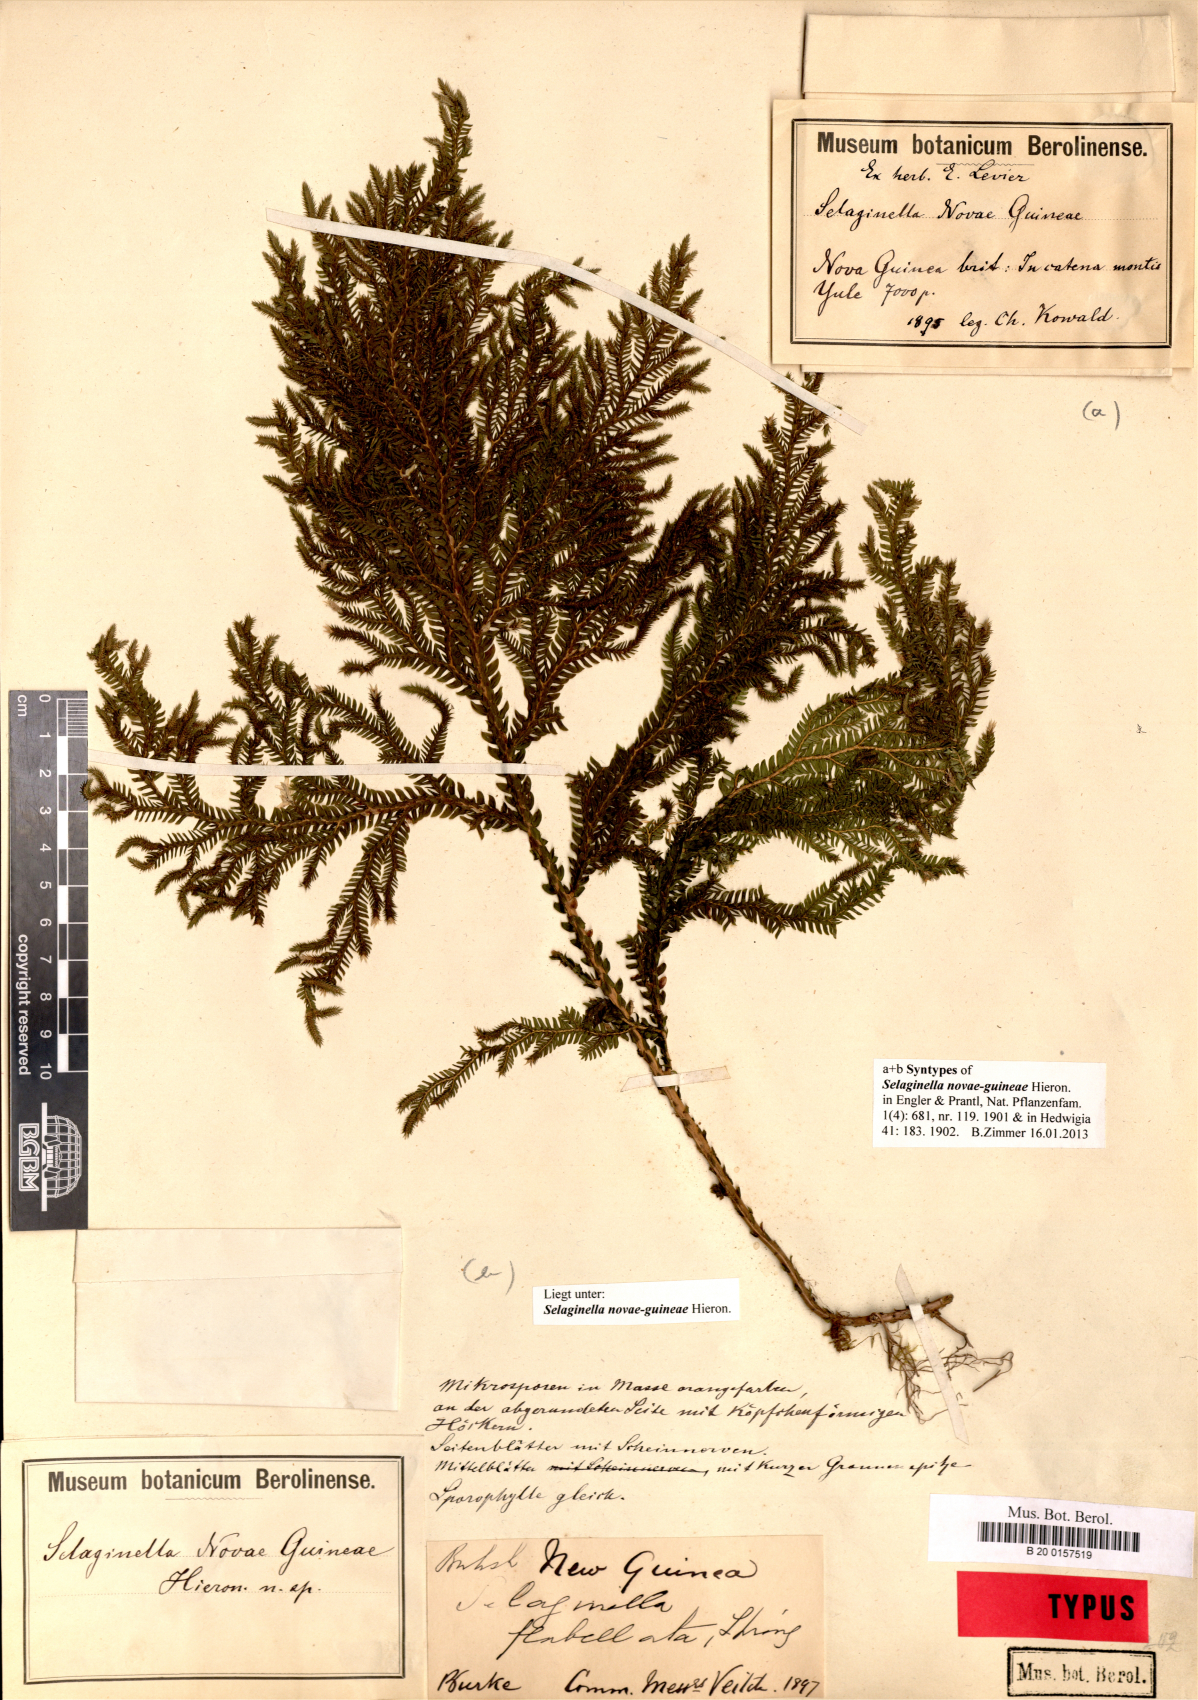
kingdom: Plantae
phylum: Tracheophyta
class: Lycopodiopsida
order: Selaginellales
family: Selaginellaceae
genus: Selaginella
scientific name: Selaginella novae-guineae
